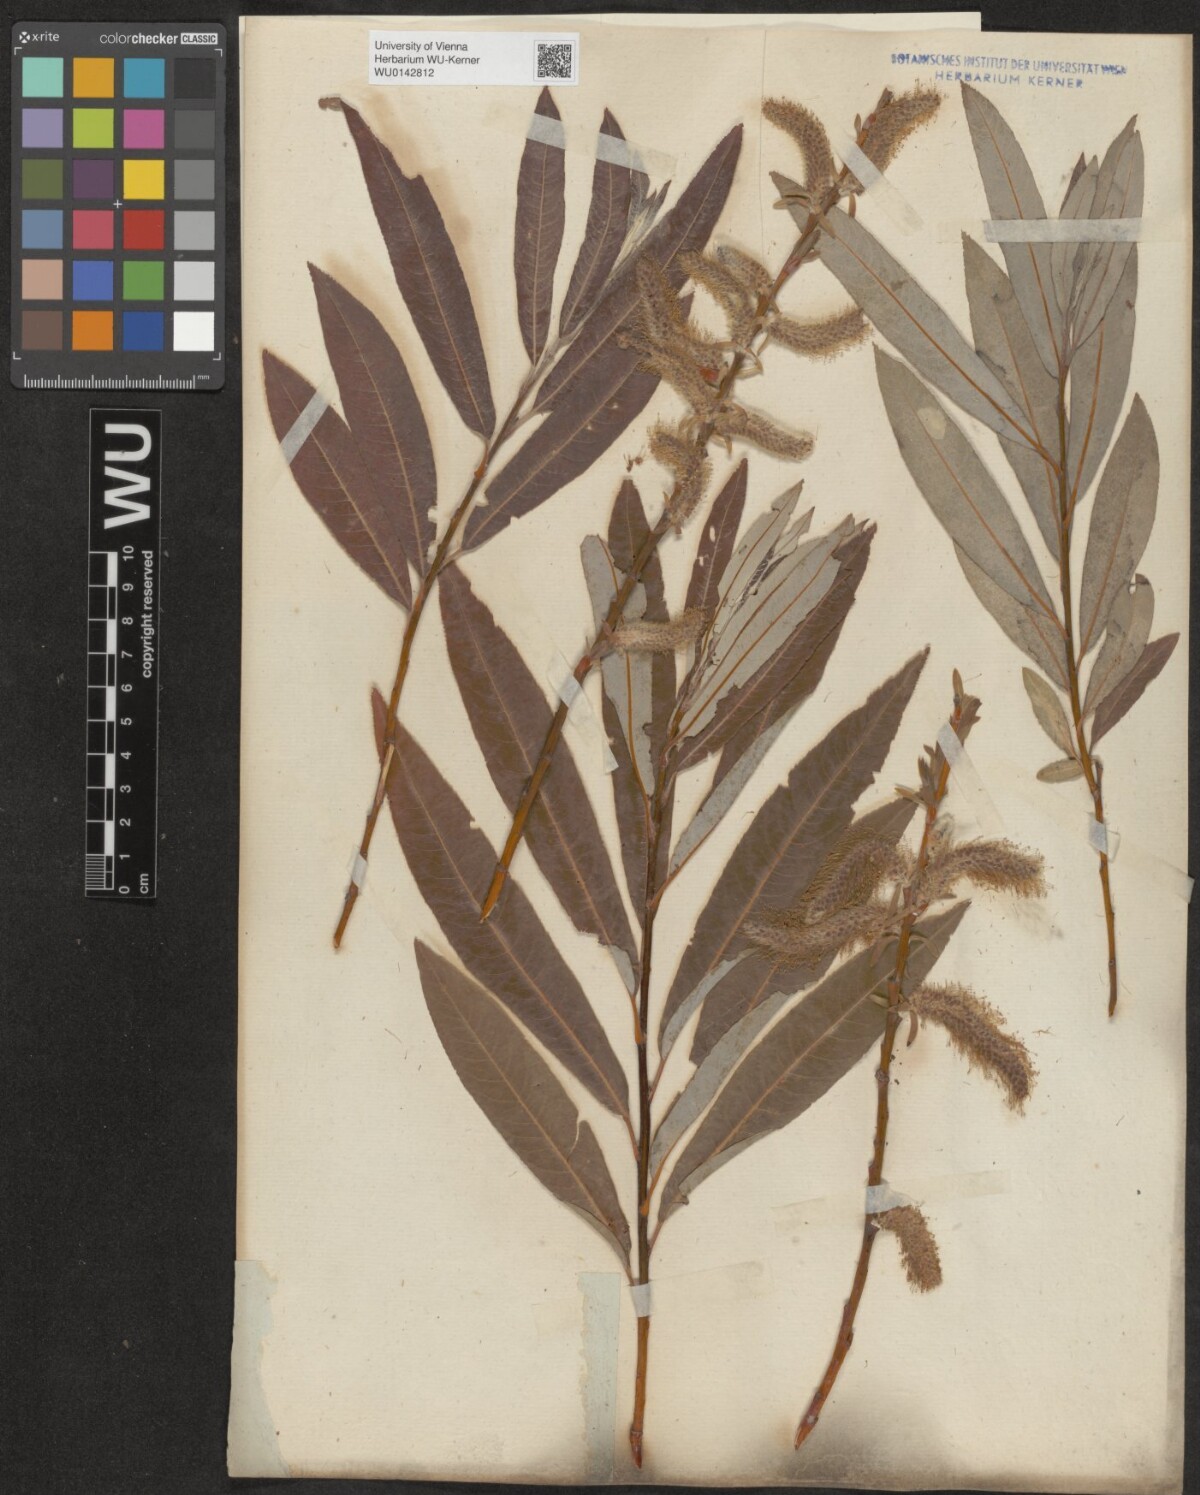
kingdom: Plantae
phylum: Tracheophyta
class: Magnoliopsida
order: Malpighiales
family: Salicaceae
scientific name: Salicaceae
